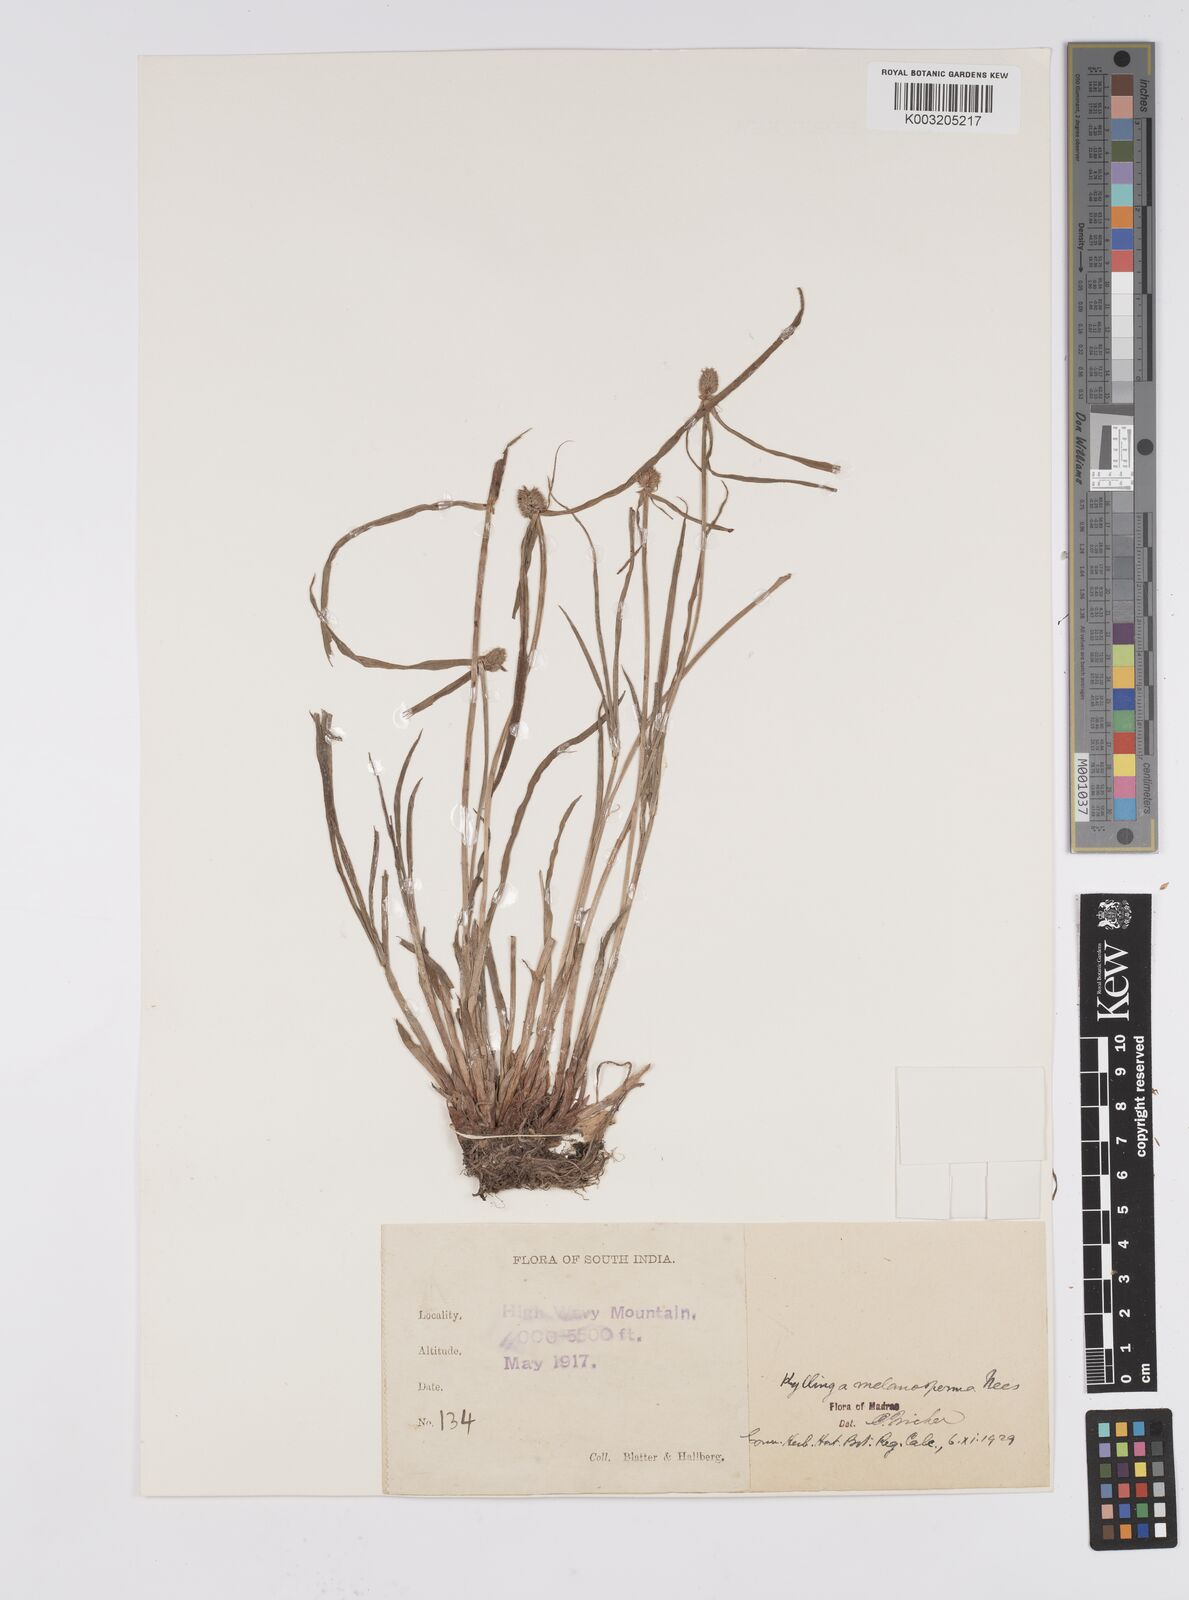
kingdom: Plantae
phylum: Tracheophyta
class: Liliopsida
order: Poales
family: Cyperaceae
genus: Cyperus
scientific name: Cyperus melanospermus
